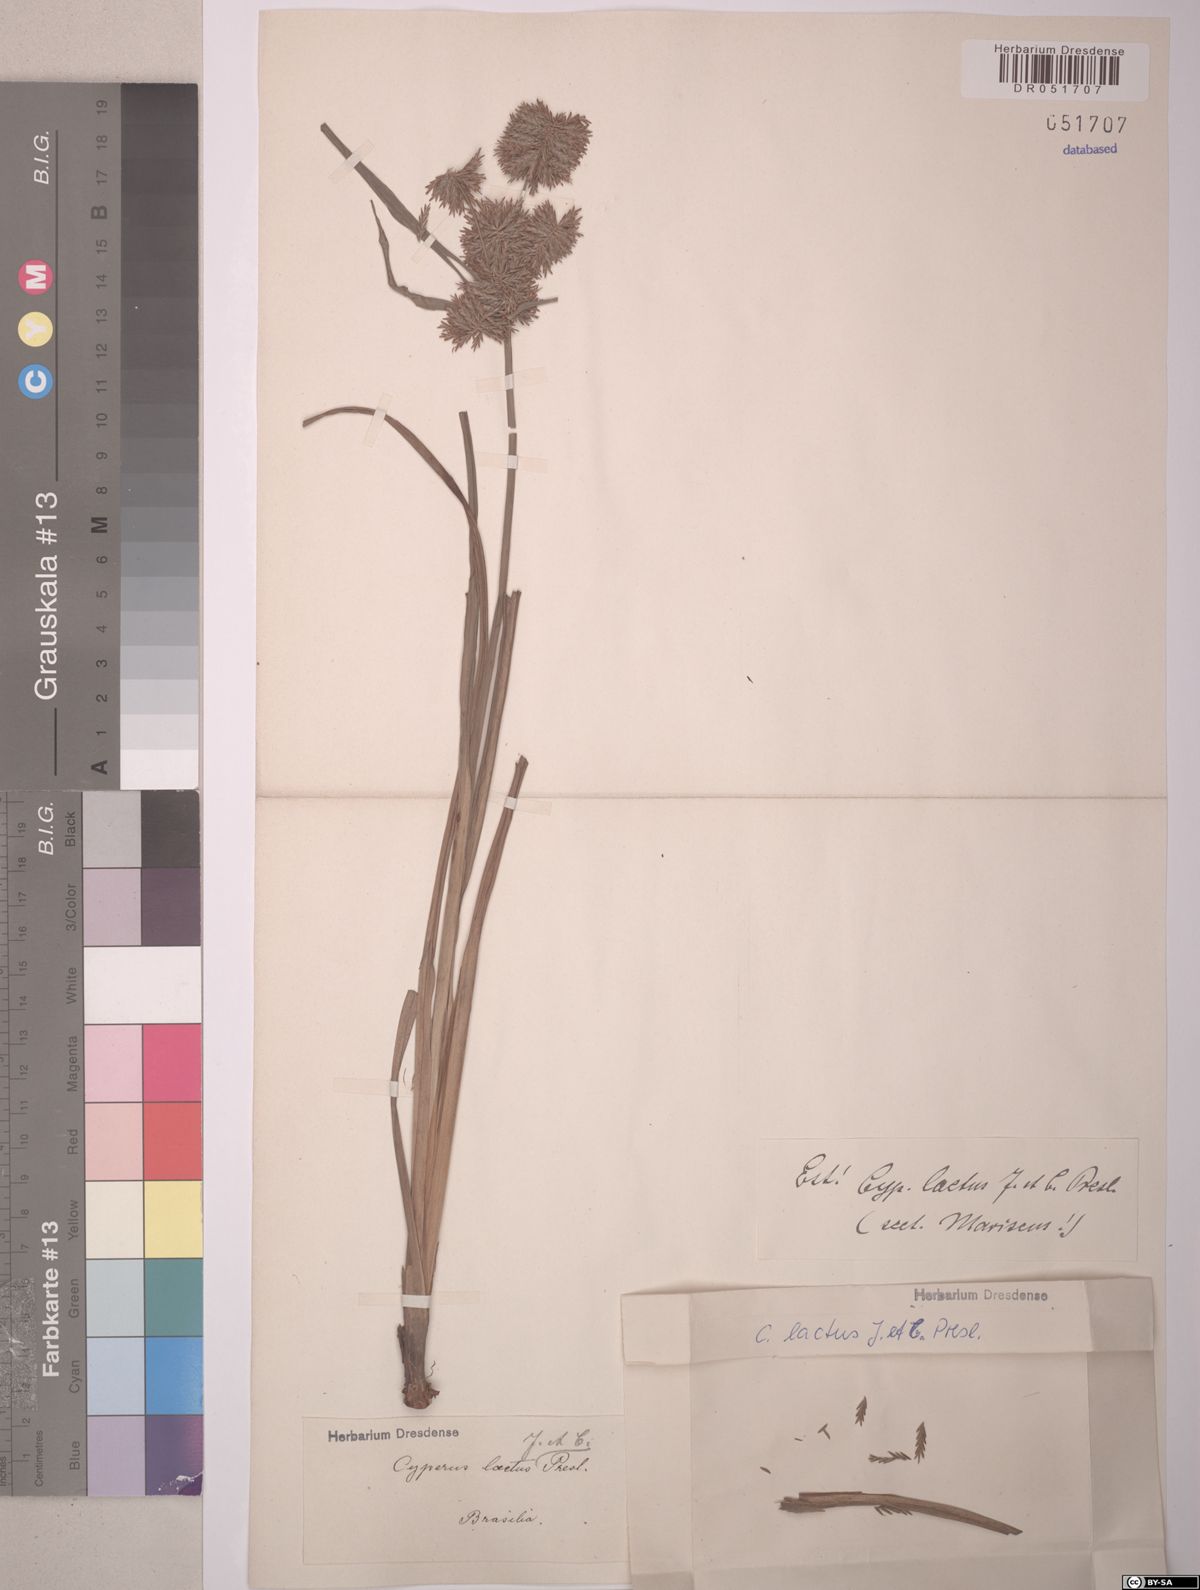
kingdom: Plantae
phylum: Tracheophyta
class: Liliopsida
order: Poales
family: Cyperaceae
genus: Cyperus
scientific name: Cyperus laetus
